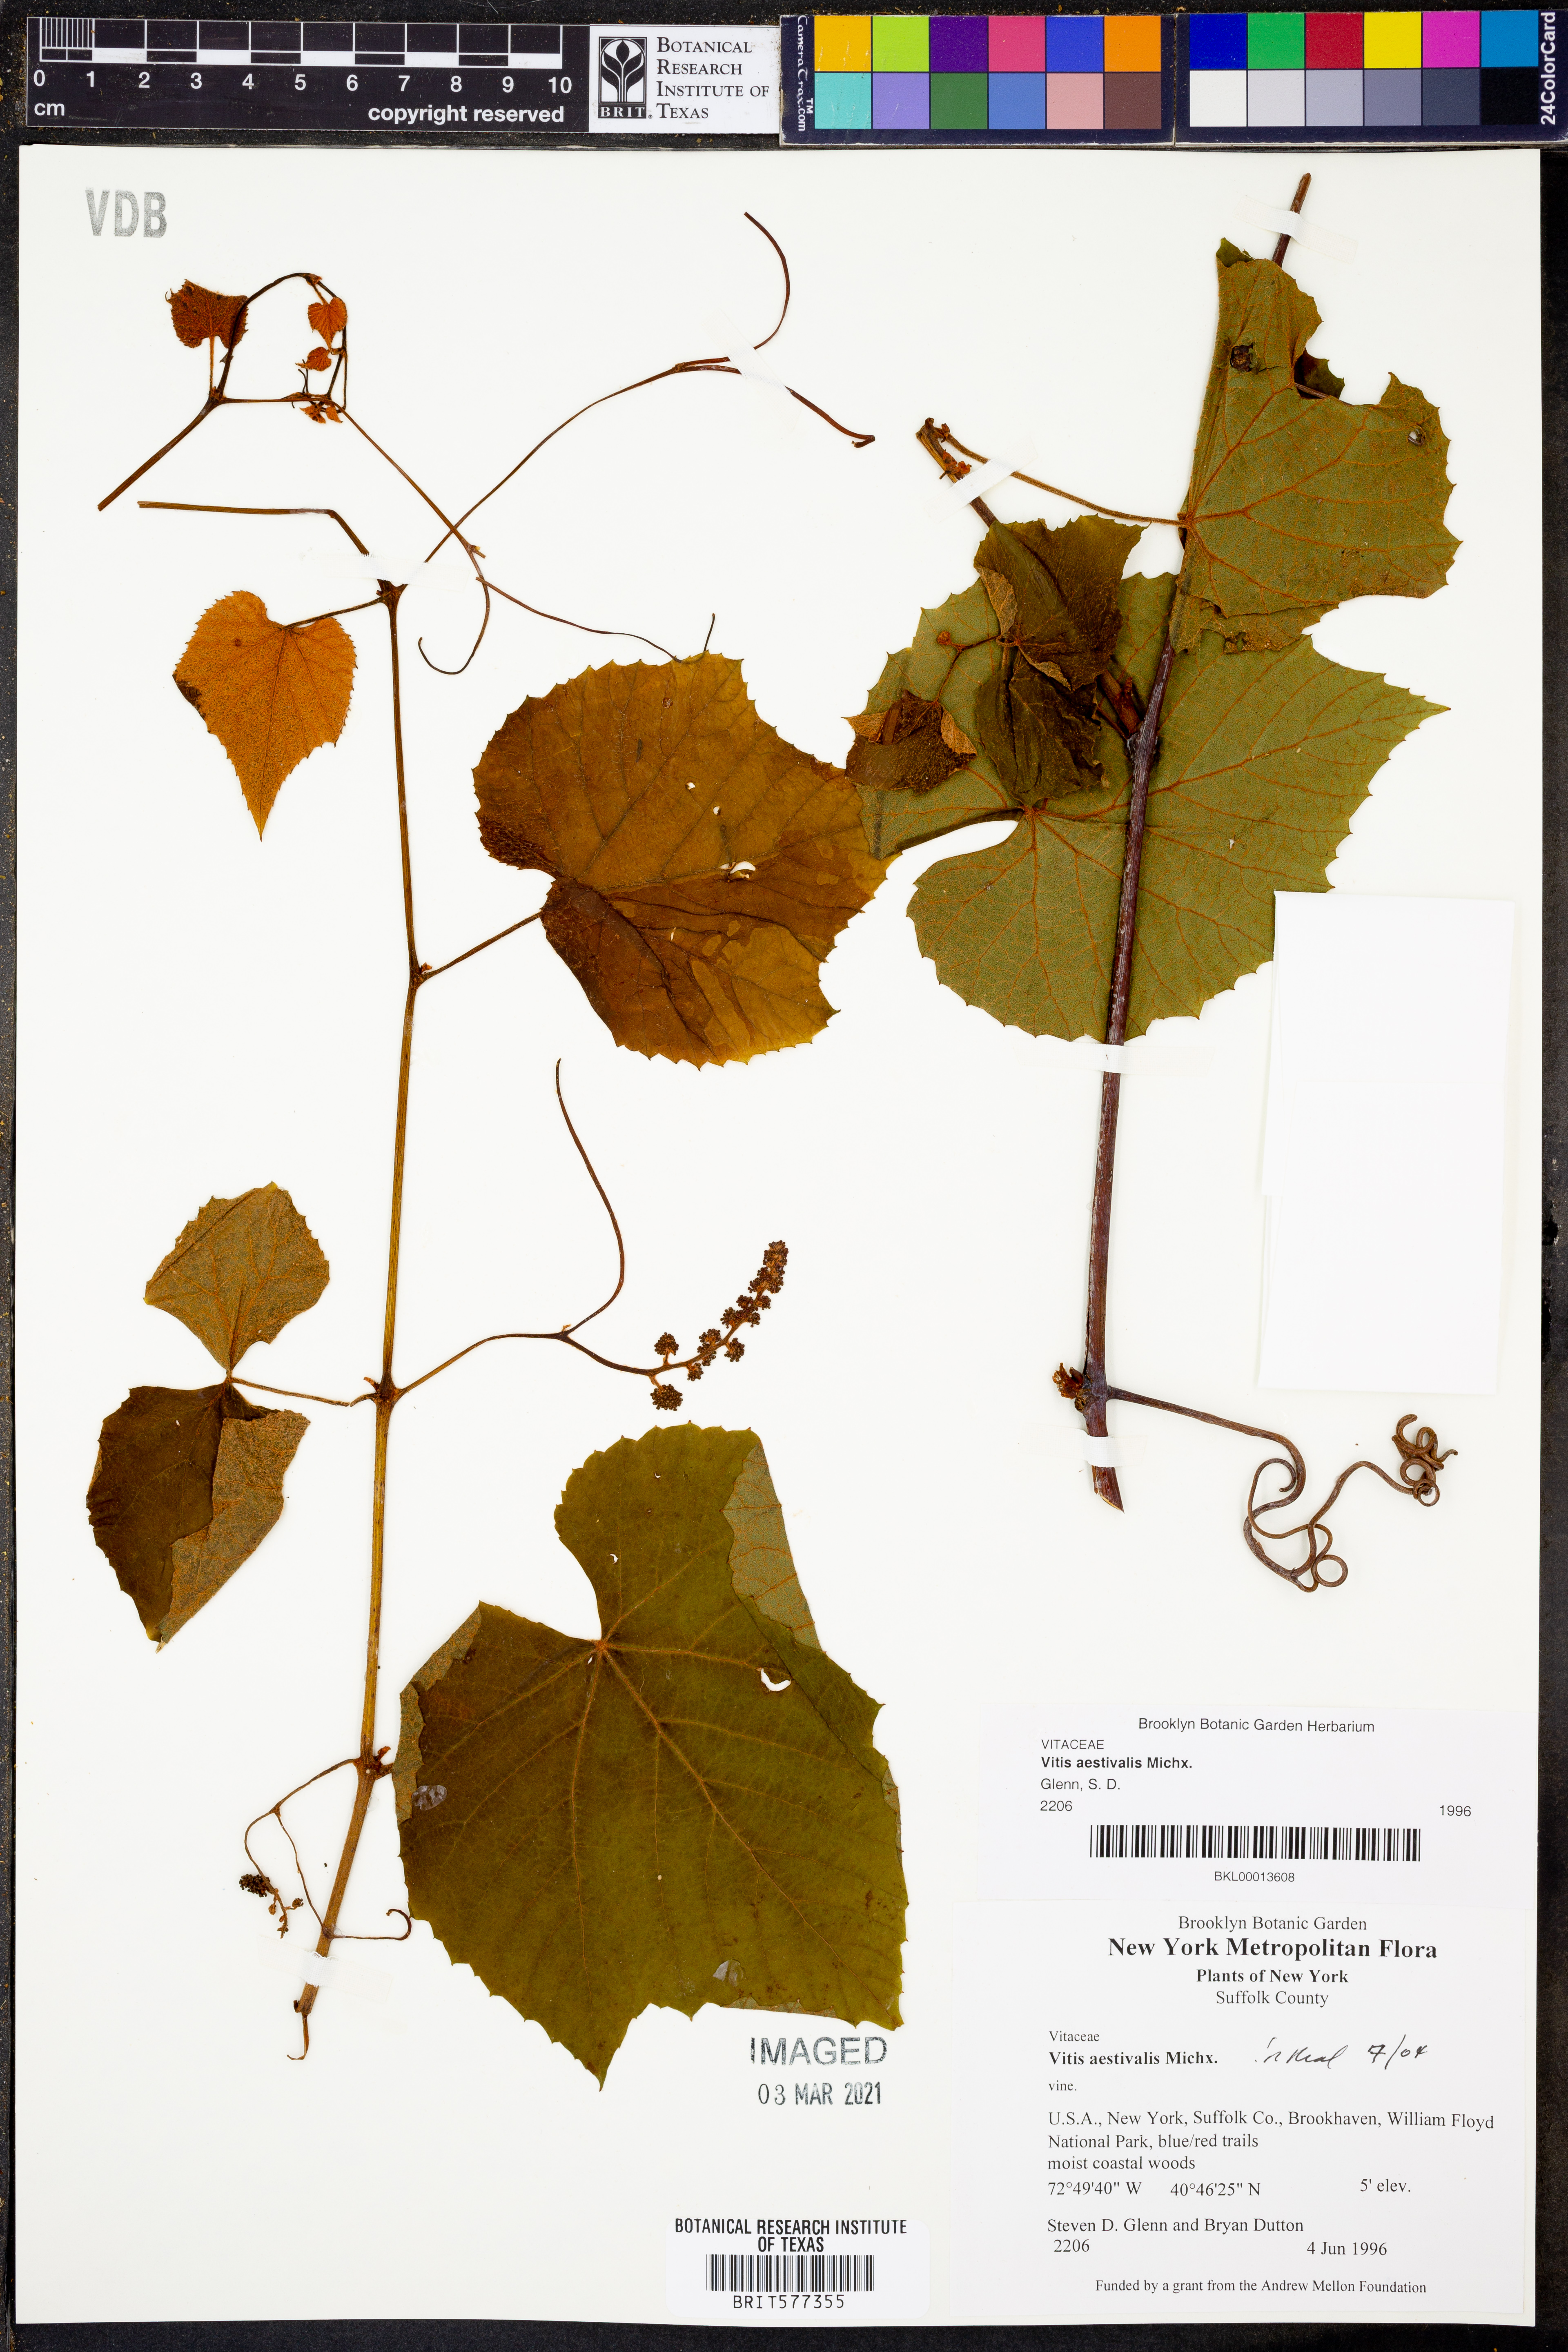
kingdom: Plantae
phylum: Tracheophyta
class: Magnoliopsida
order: Vitales
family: Vitaceae
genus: Vitis
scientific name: Vitis aestivalis
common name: Pigeon grape
